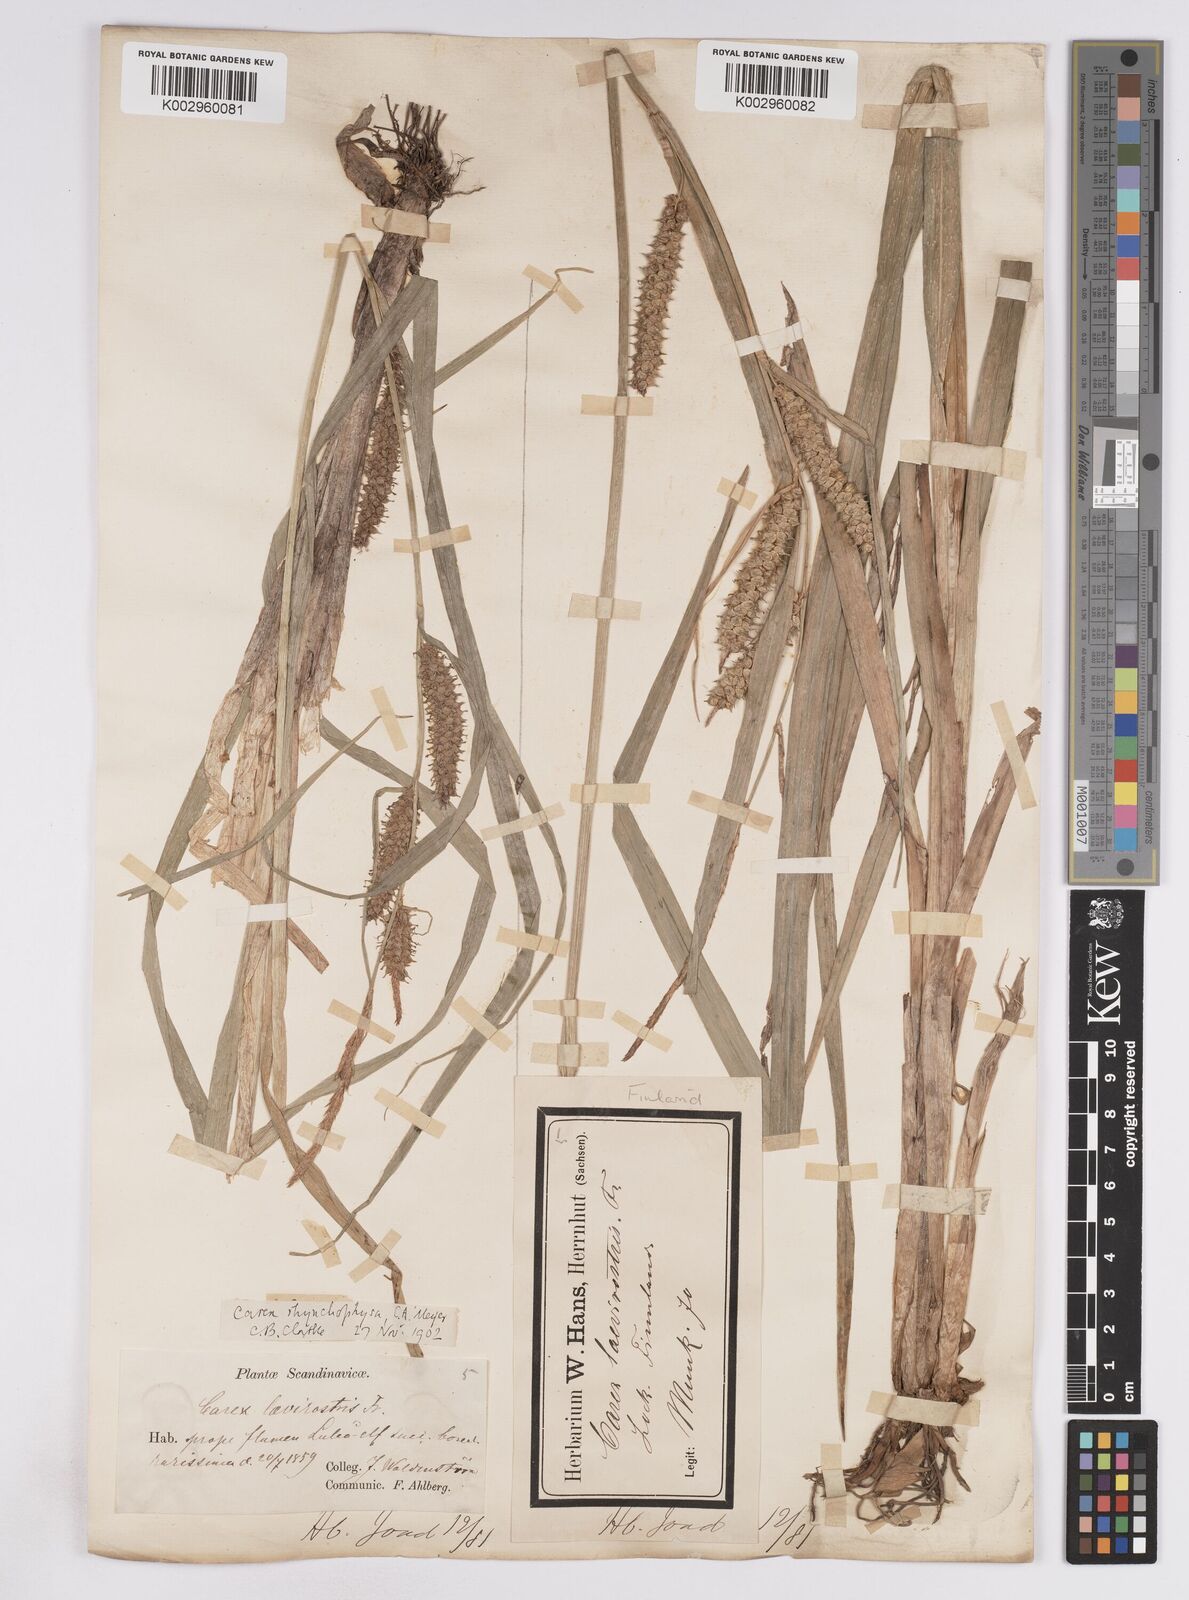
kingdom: Plantae
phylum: Tracheophyta
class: Liliopsida
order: Poales
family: Cyperaceae
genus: Carex
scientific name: Carex utriculata
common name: Beaked sedge
